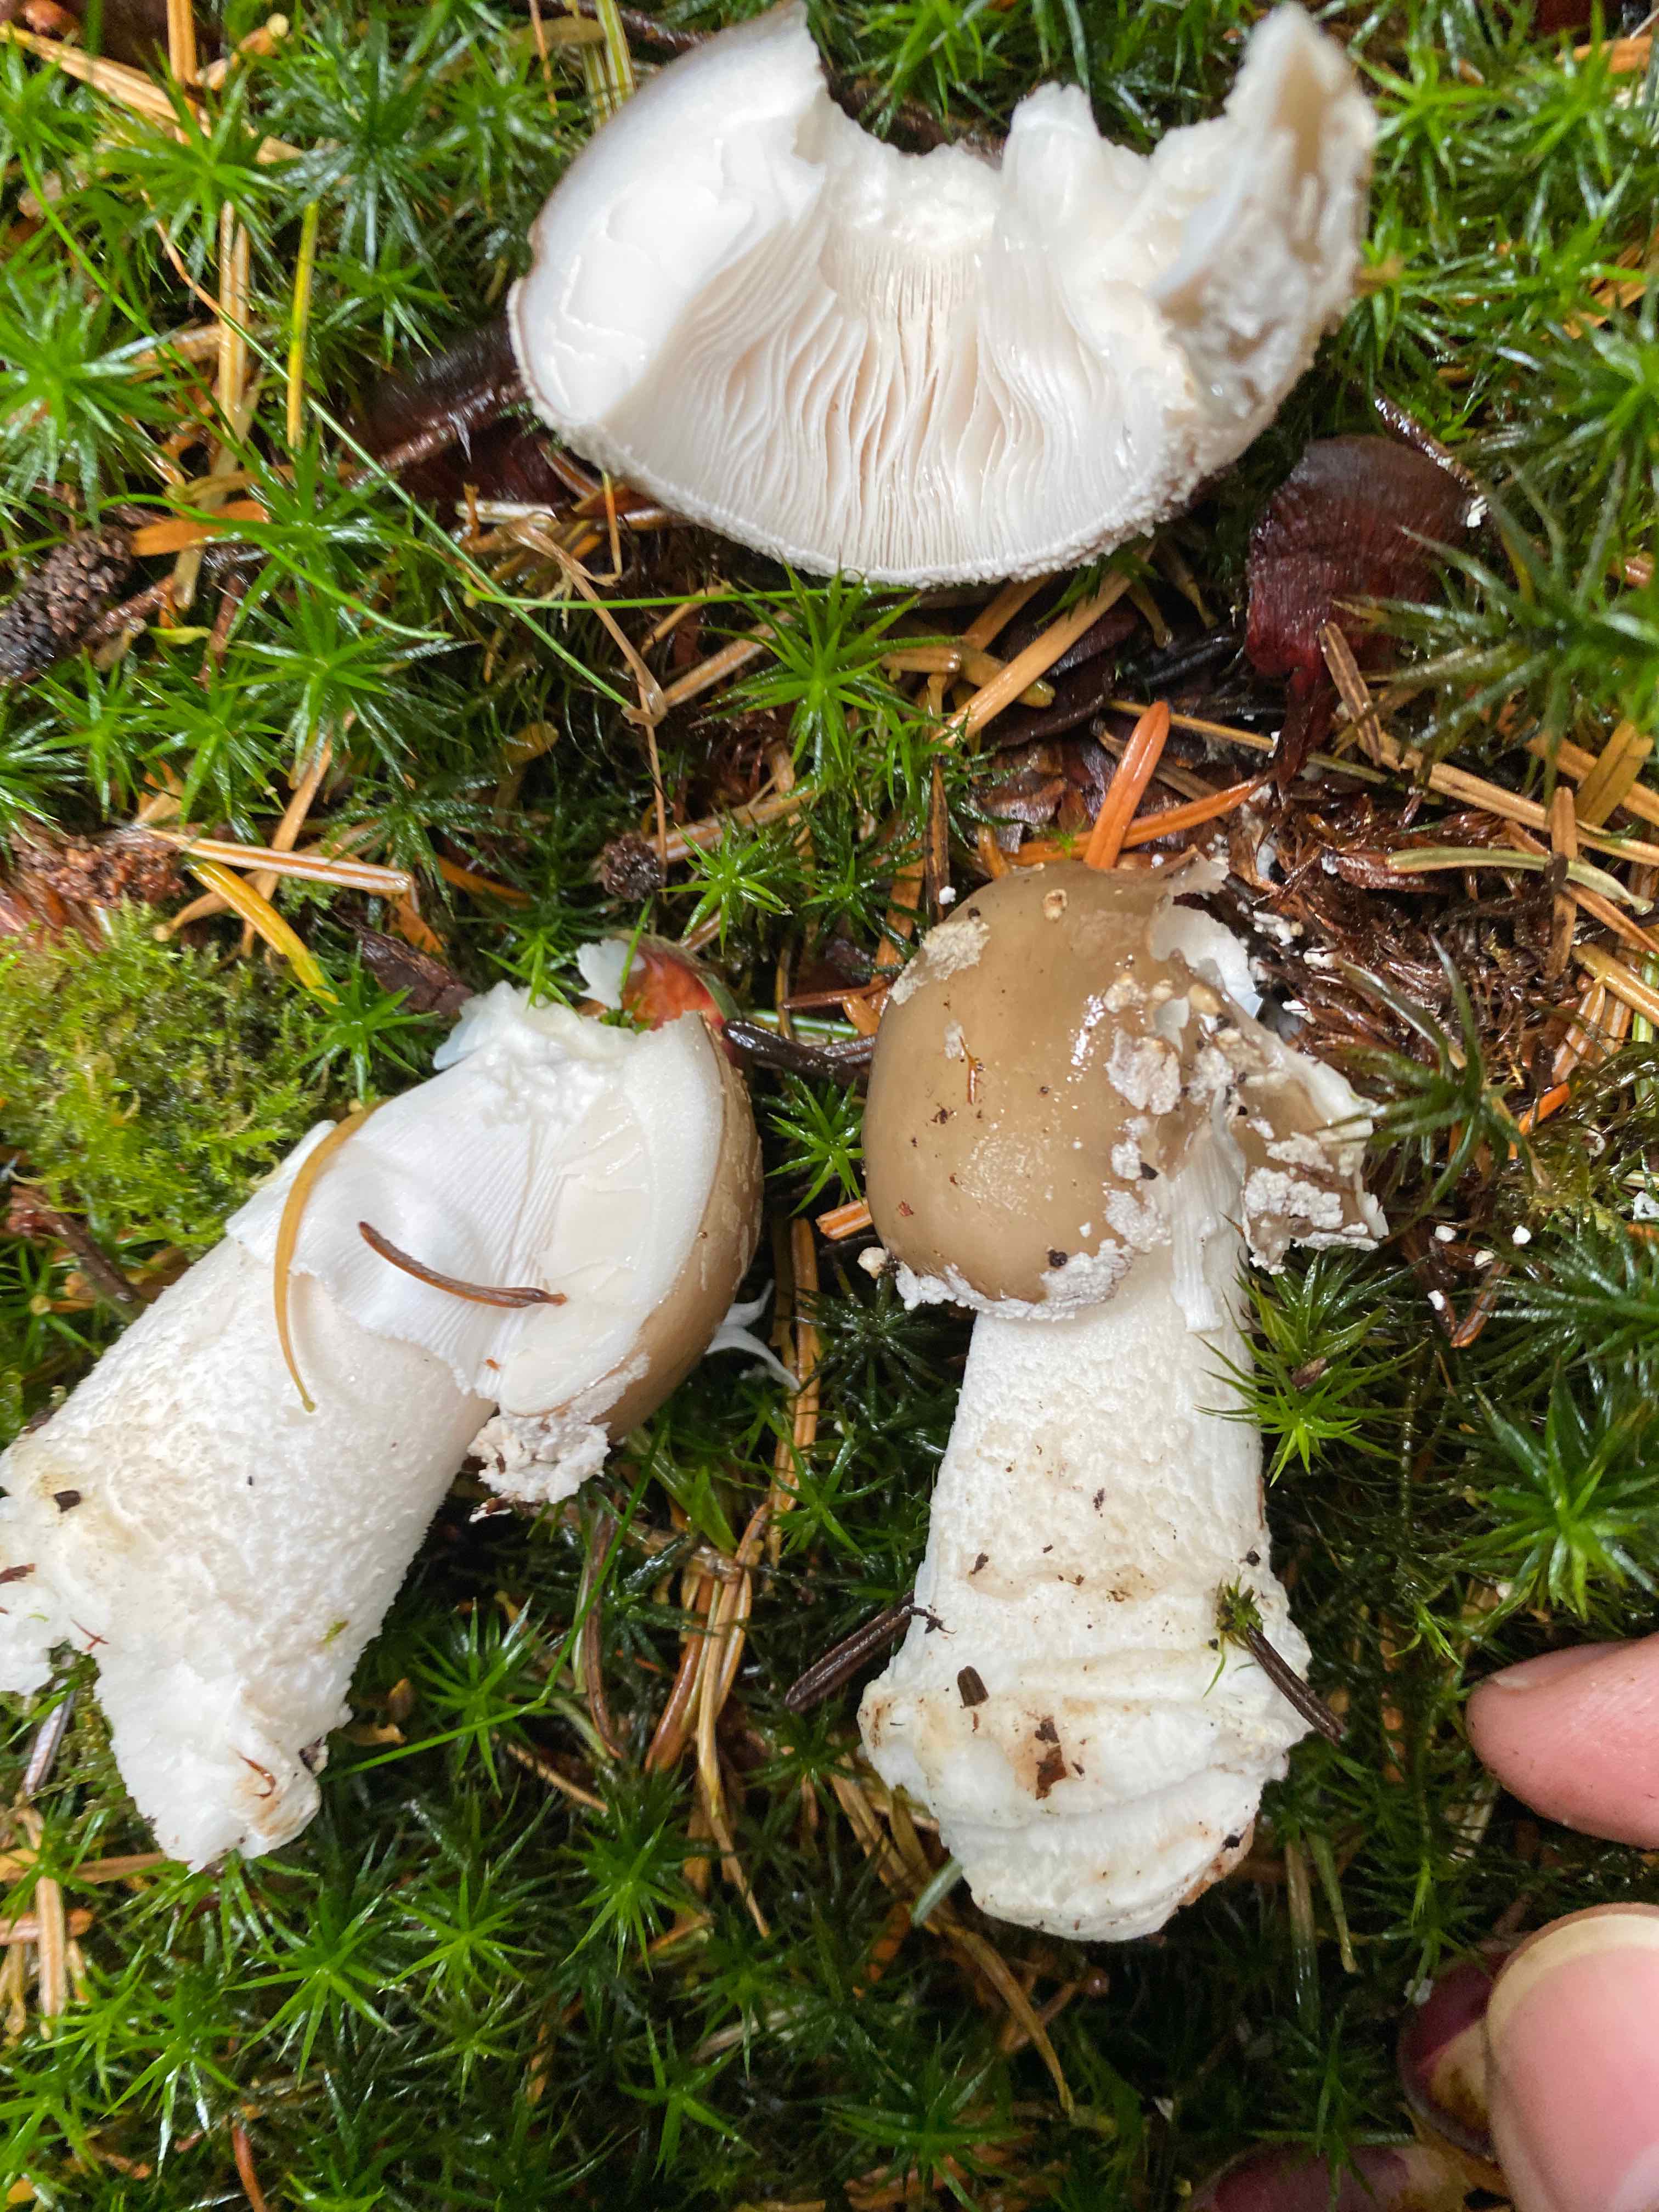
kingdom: Fungi
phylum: Basidiomycota
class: Agaricomycetes
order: Agaricales
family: Amanitaceae
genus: Amanita
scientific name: Amanita
